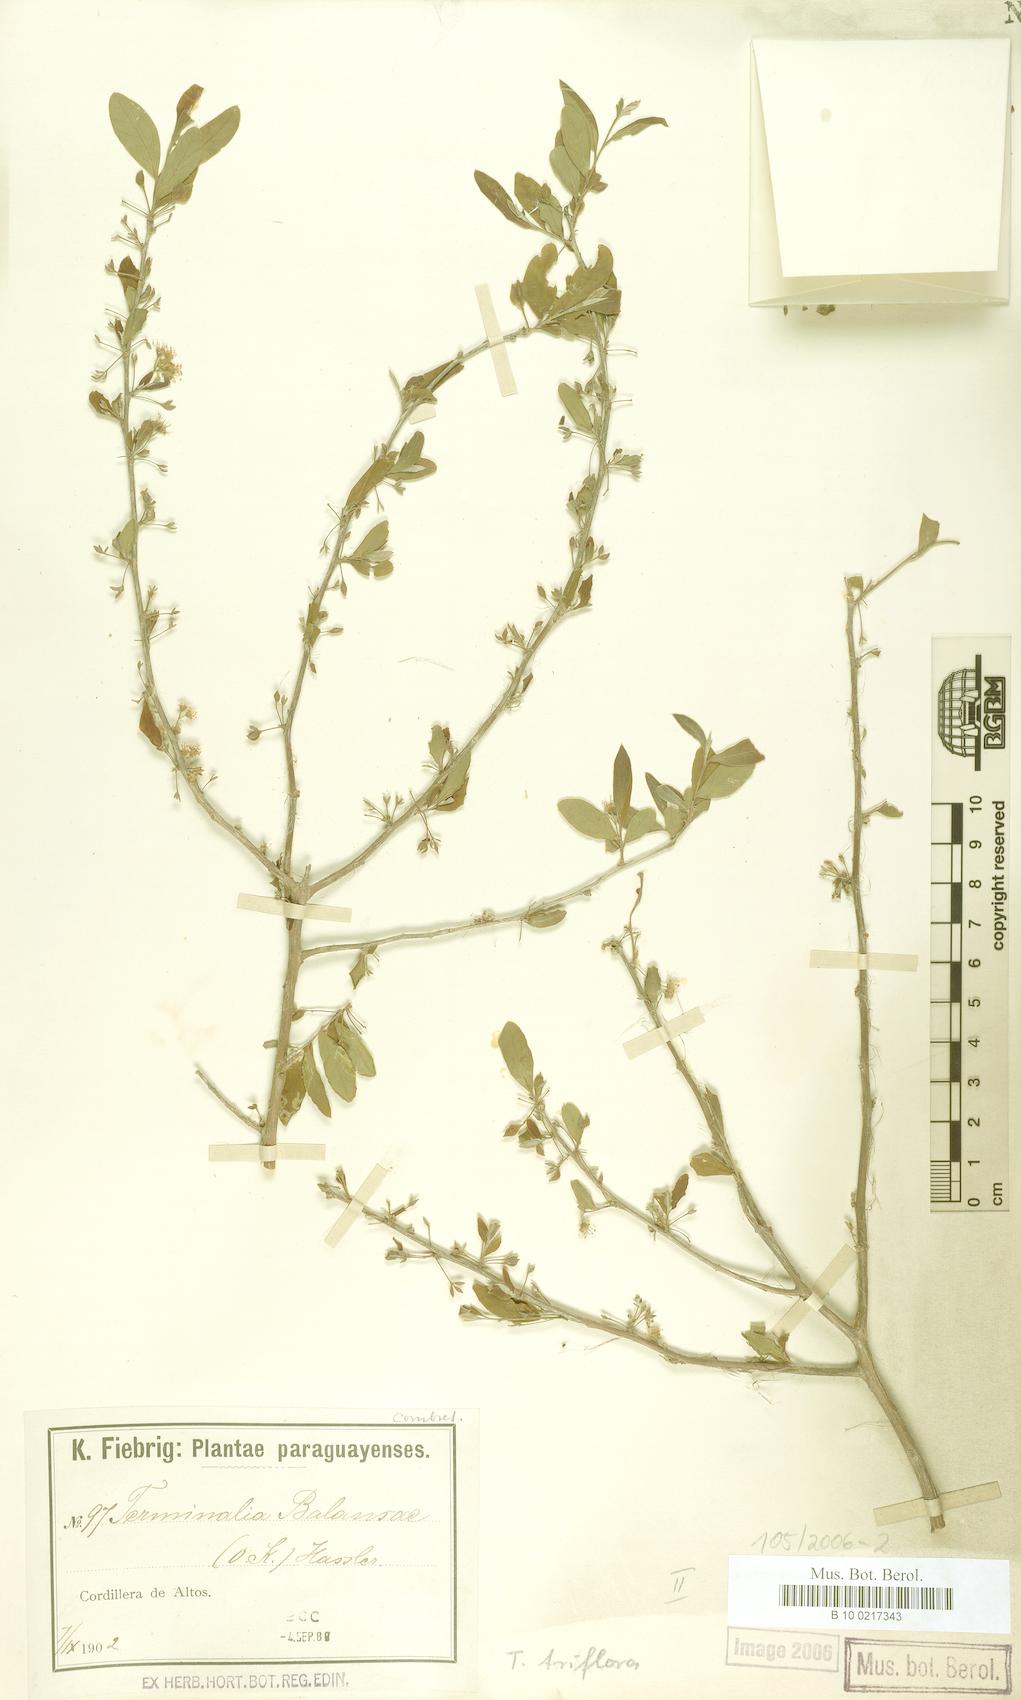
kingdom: Plantae
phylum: Tracheophyta
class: Magnoliopsida
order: Myrtales
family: Combretaceae
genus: Terminalia
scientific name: Terminalia triflora
